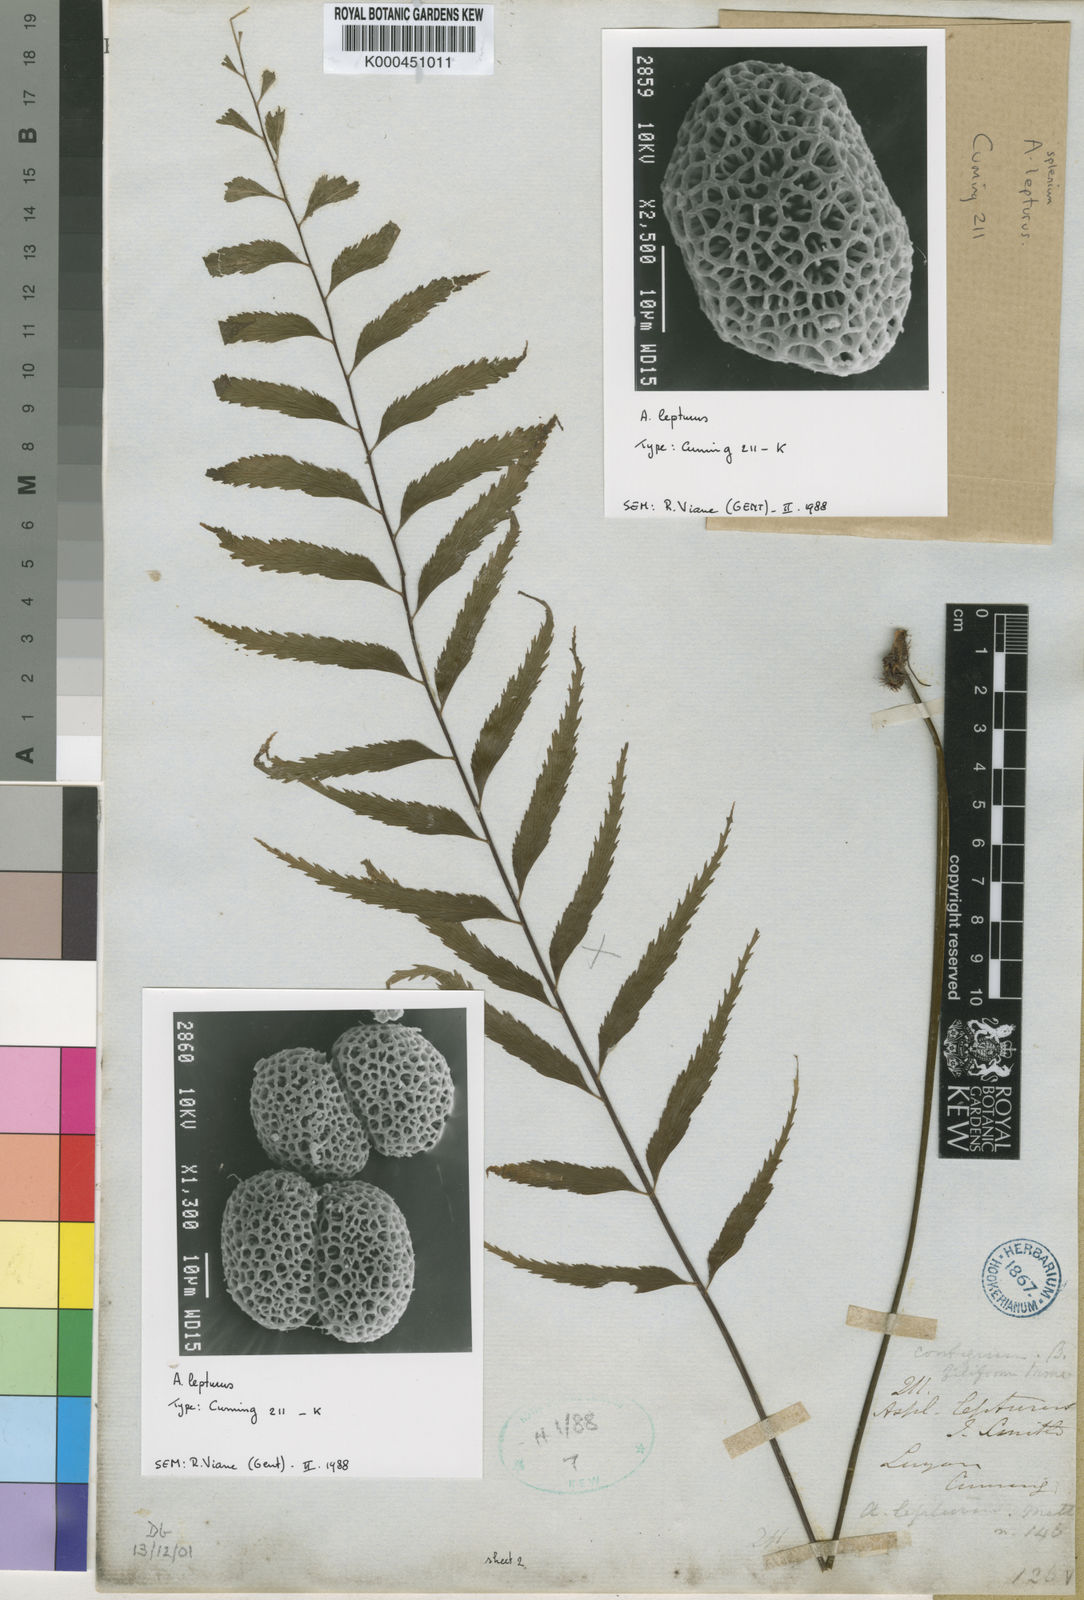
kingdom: Plantae
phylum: Tracheophyta
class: Polypodiopsida
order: Polypodiales
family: Aspleniaceae
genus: Asplenium
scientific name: Asplenium lepturus
